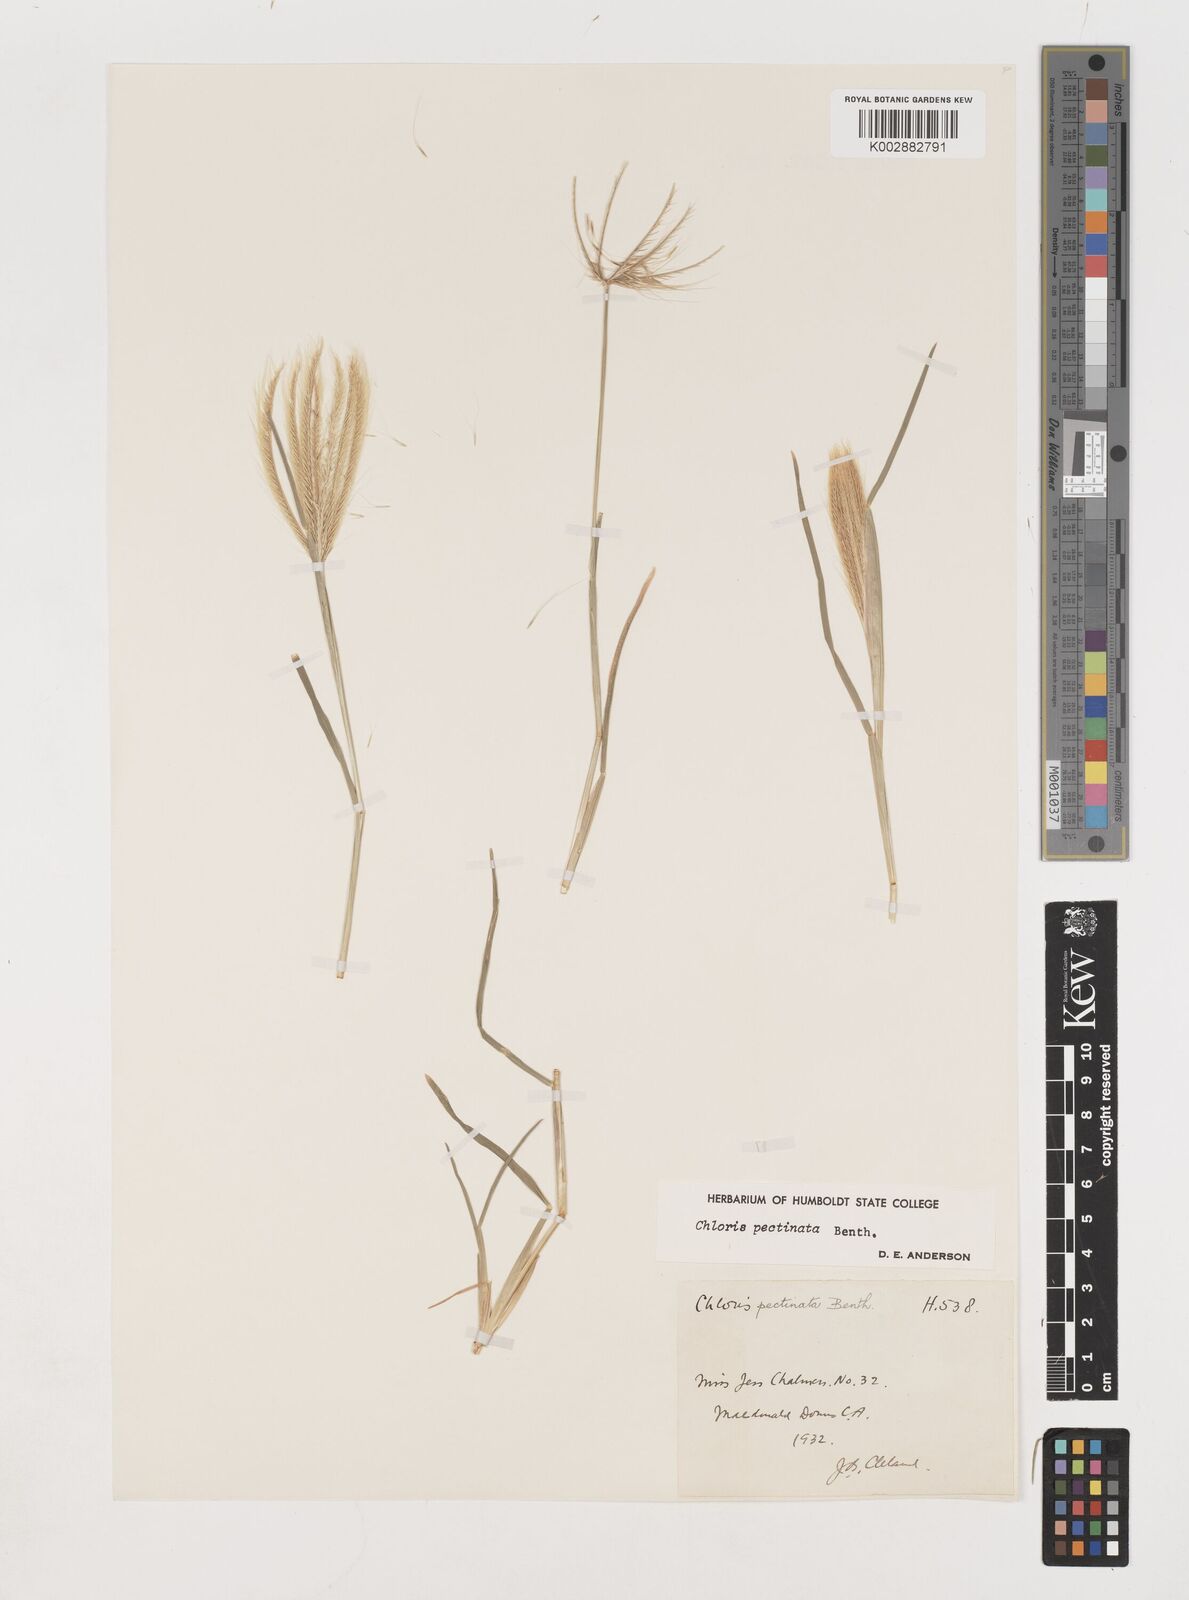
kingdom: Plantae
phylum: Tracheophyta
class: Liliopsida
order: Poales
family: Poaceae
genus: Chloris
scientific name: Chloris pectinata
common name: Comb windmill grass
